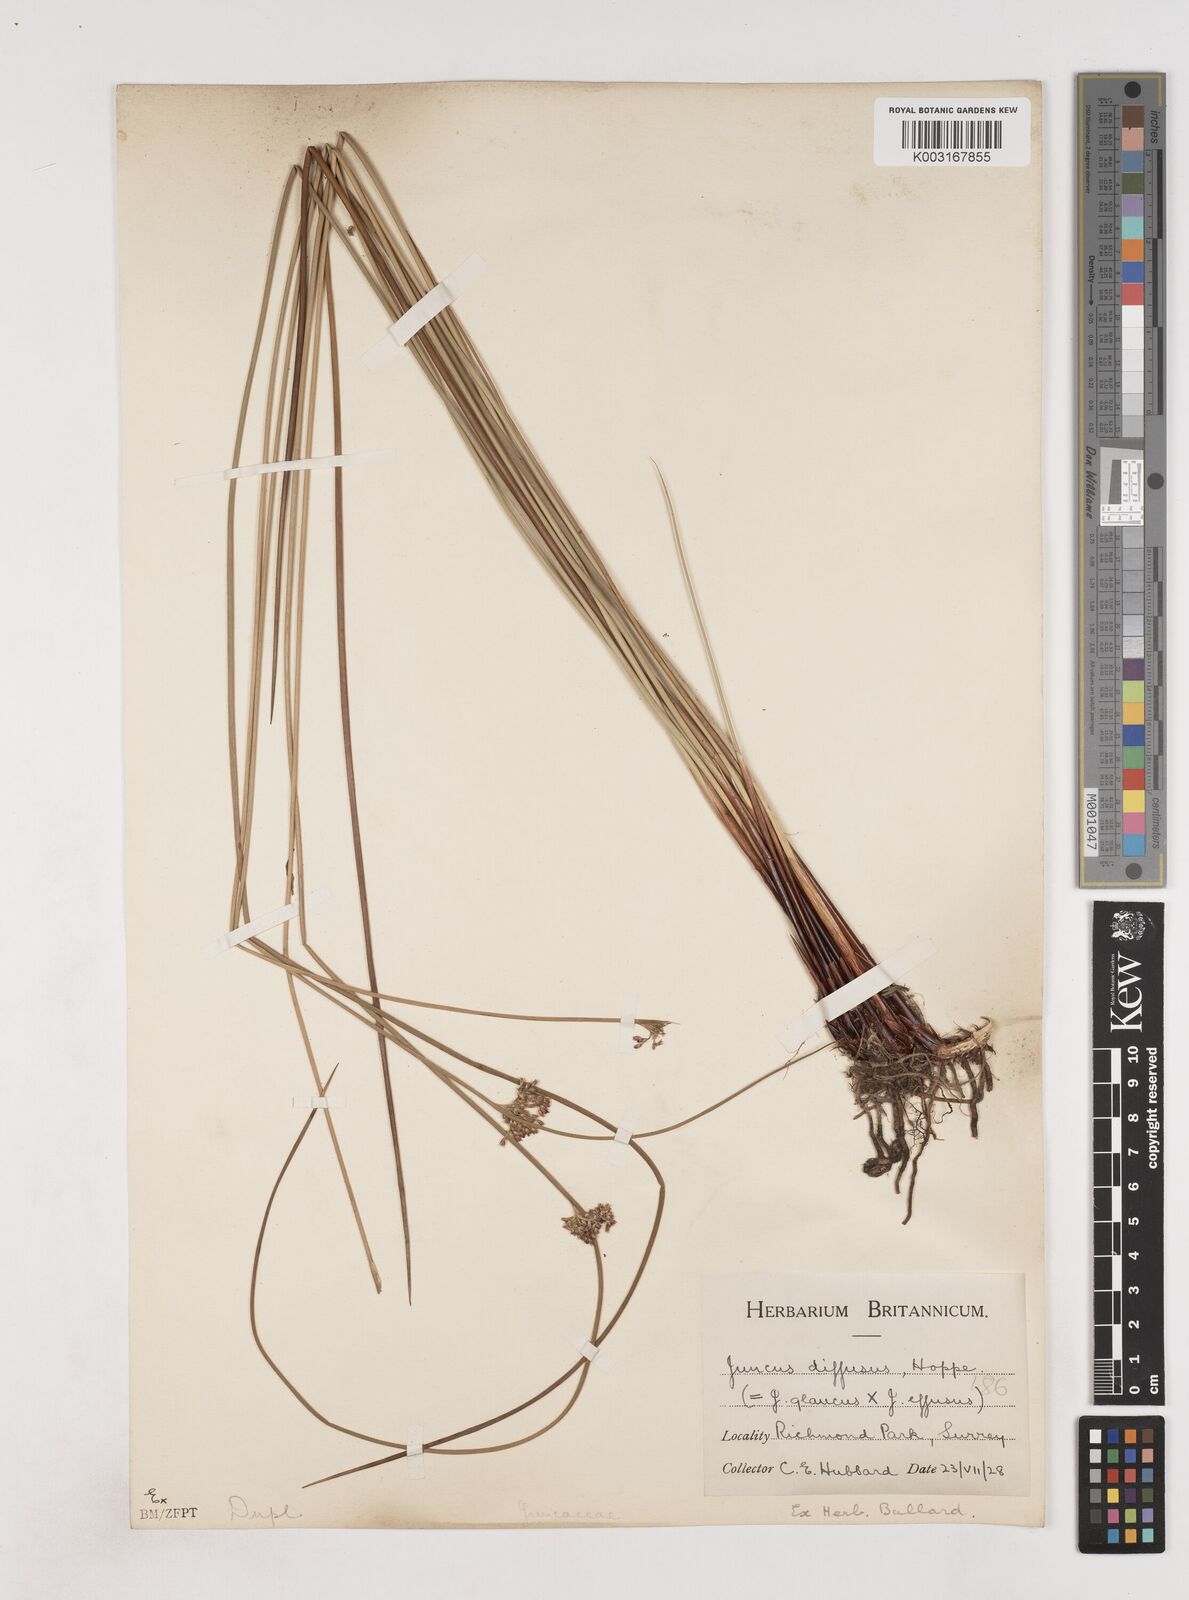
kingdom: Plantae
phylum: Tracheophyta
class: Liliopsida
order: Poales
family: Juncaceae
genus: Juncus
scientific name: Juncus effusus
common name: Soft rush
